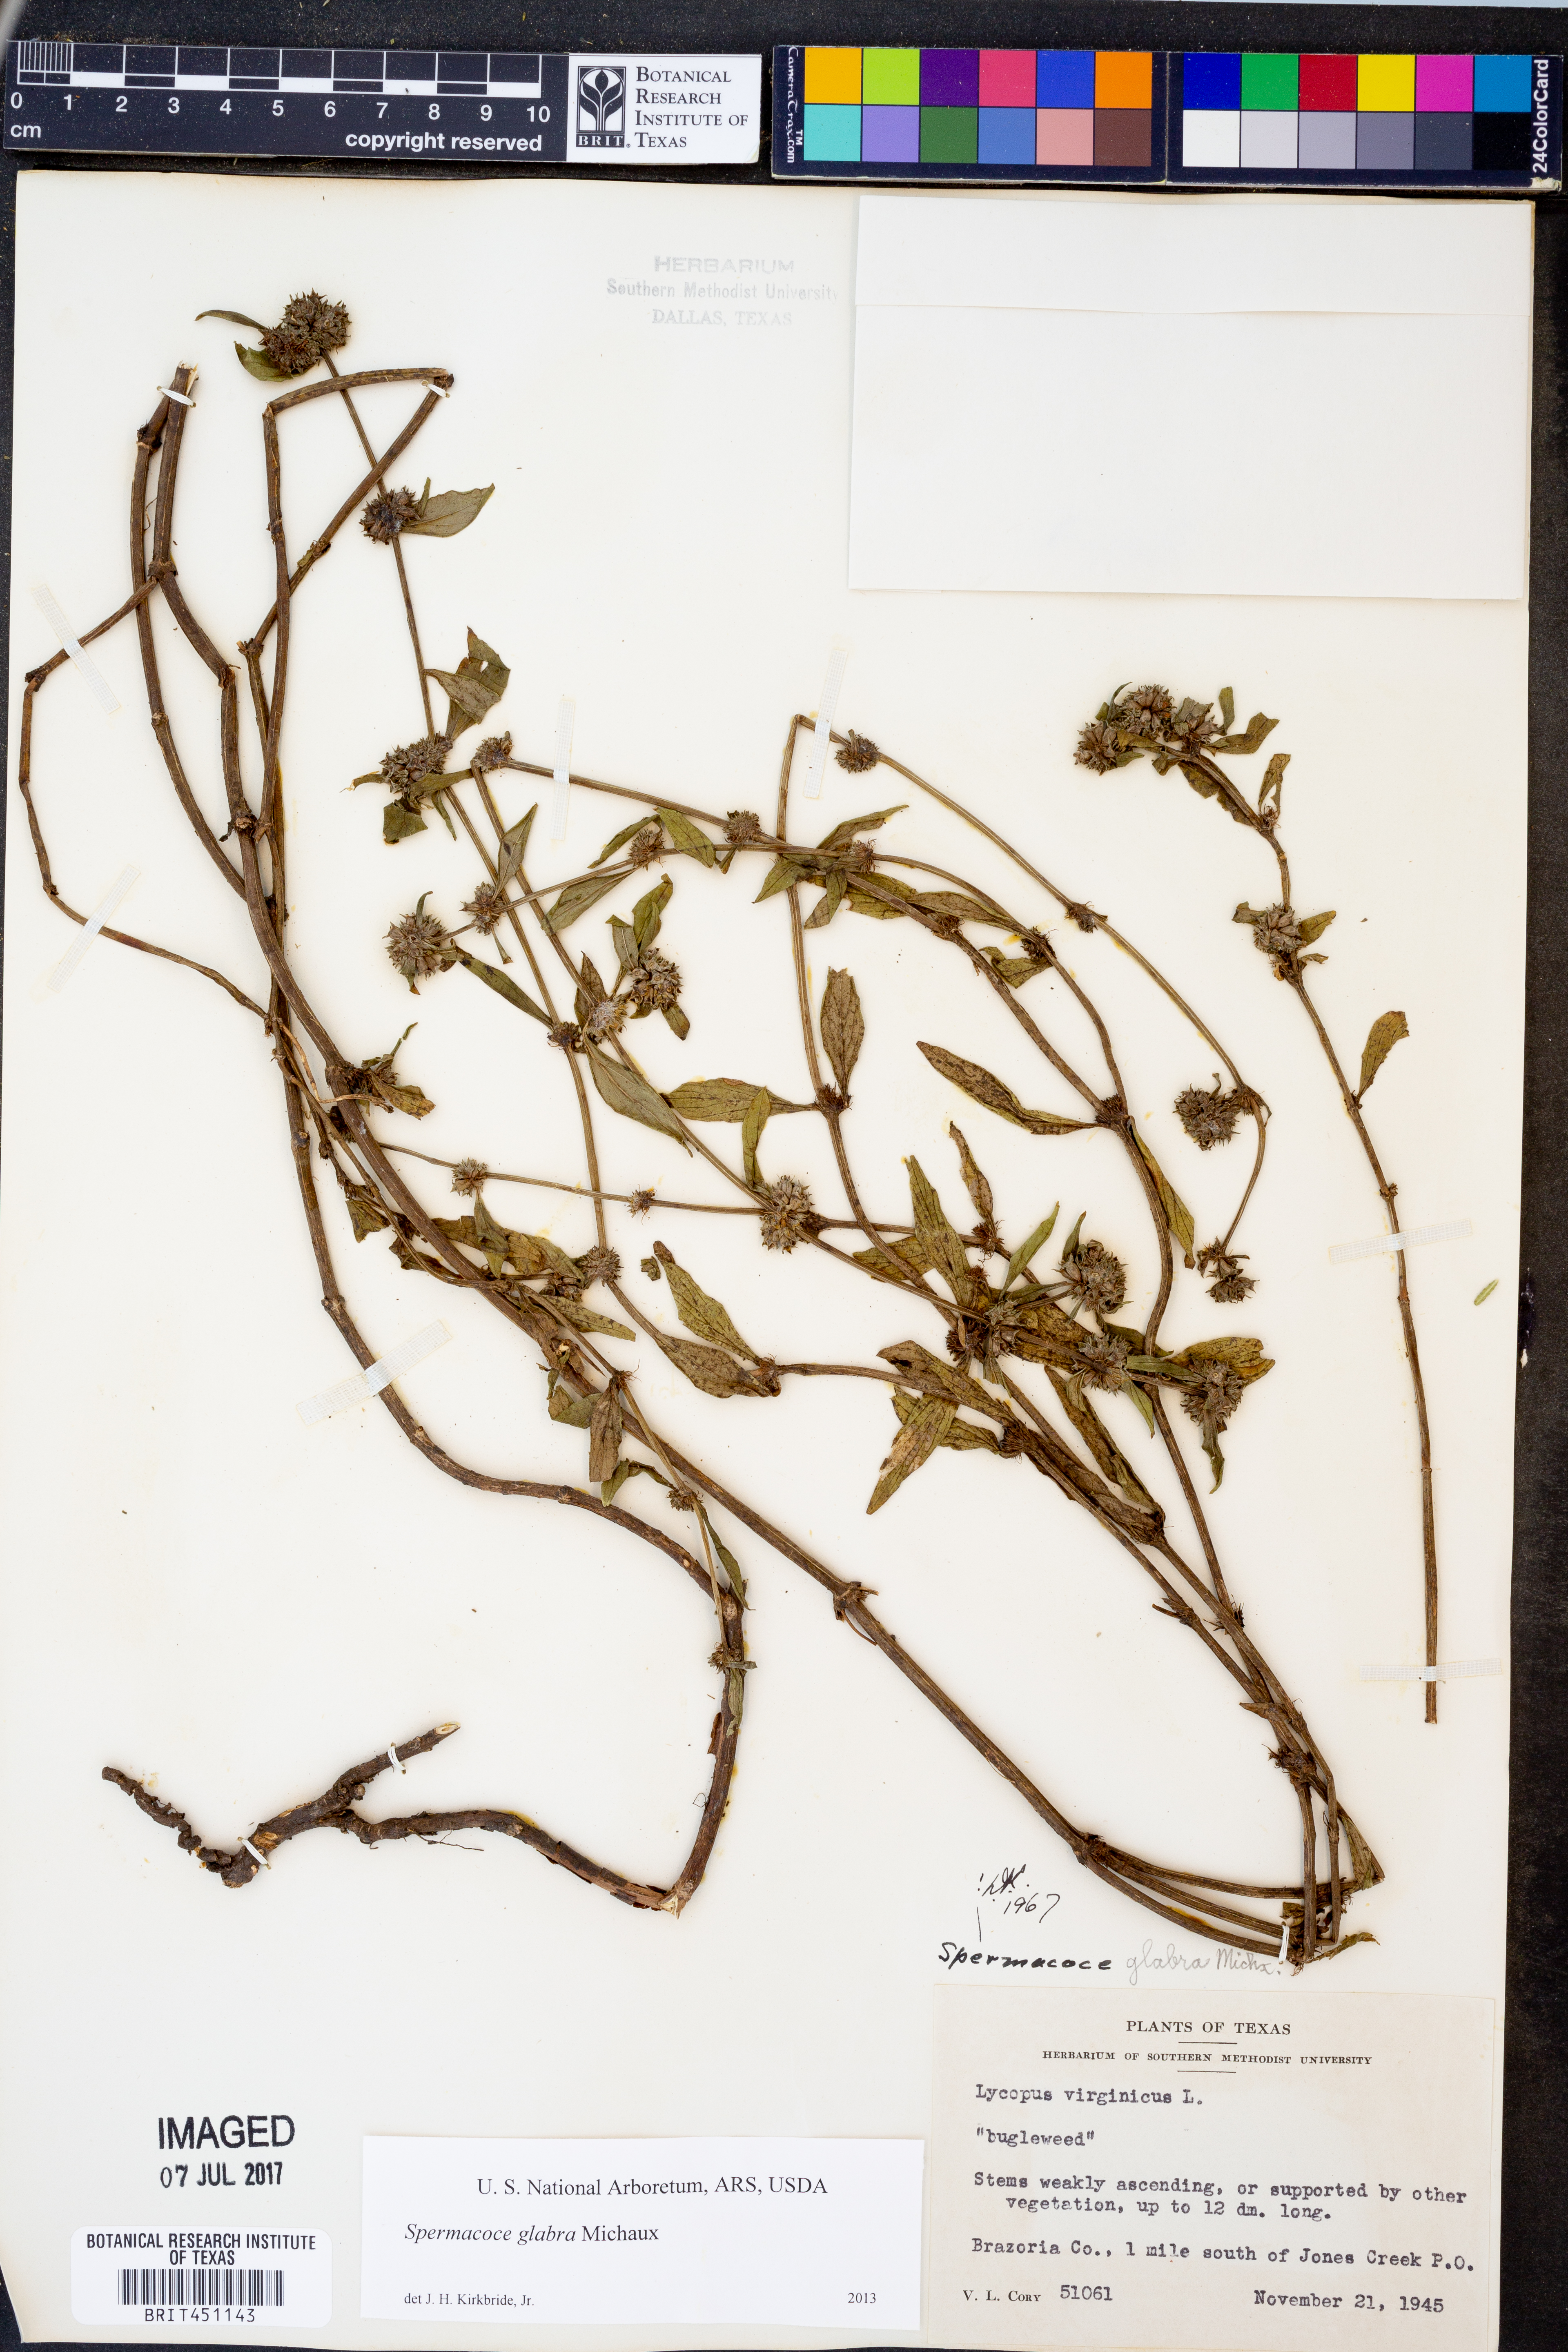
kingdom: Plantae
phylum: Tracheophyta
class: Magnoliopsida
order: Gentianales
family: Rubiaceae
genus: Spermacoce
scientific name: Spermacoce glabra
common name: Smooth buttonweed
